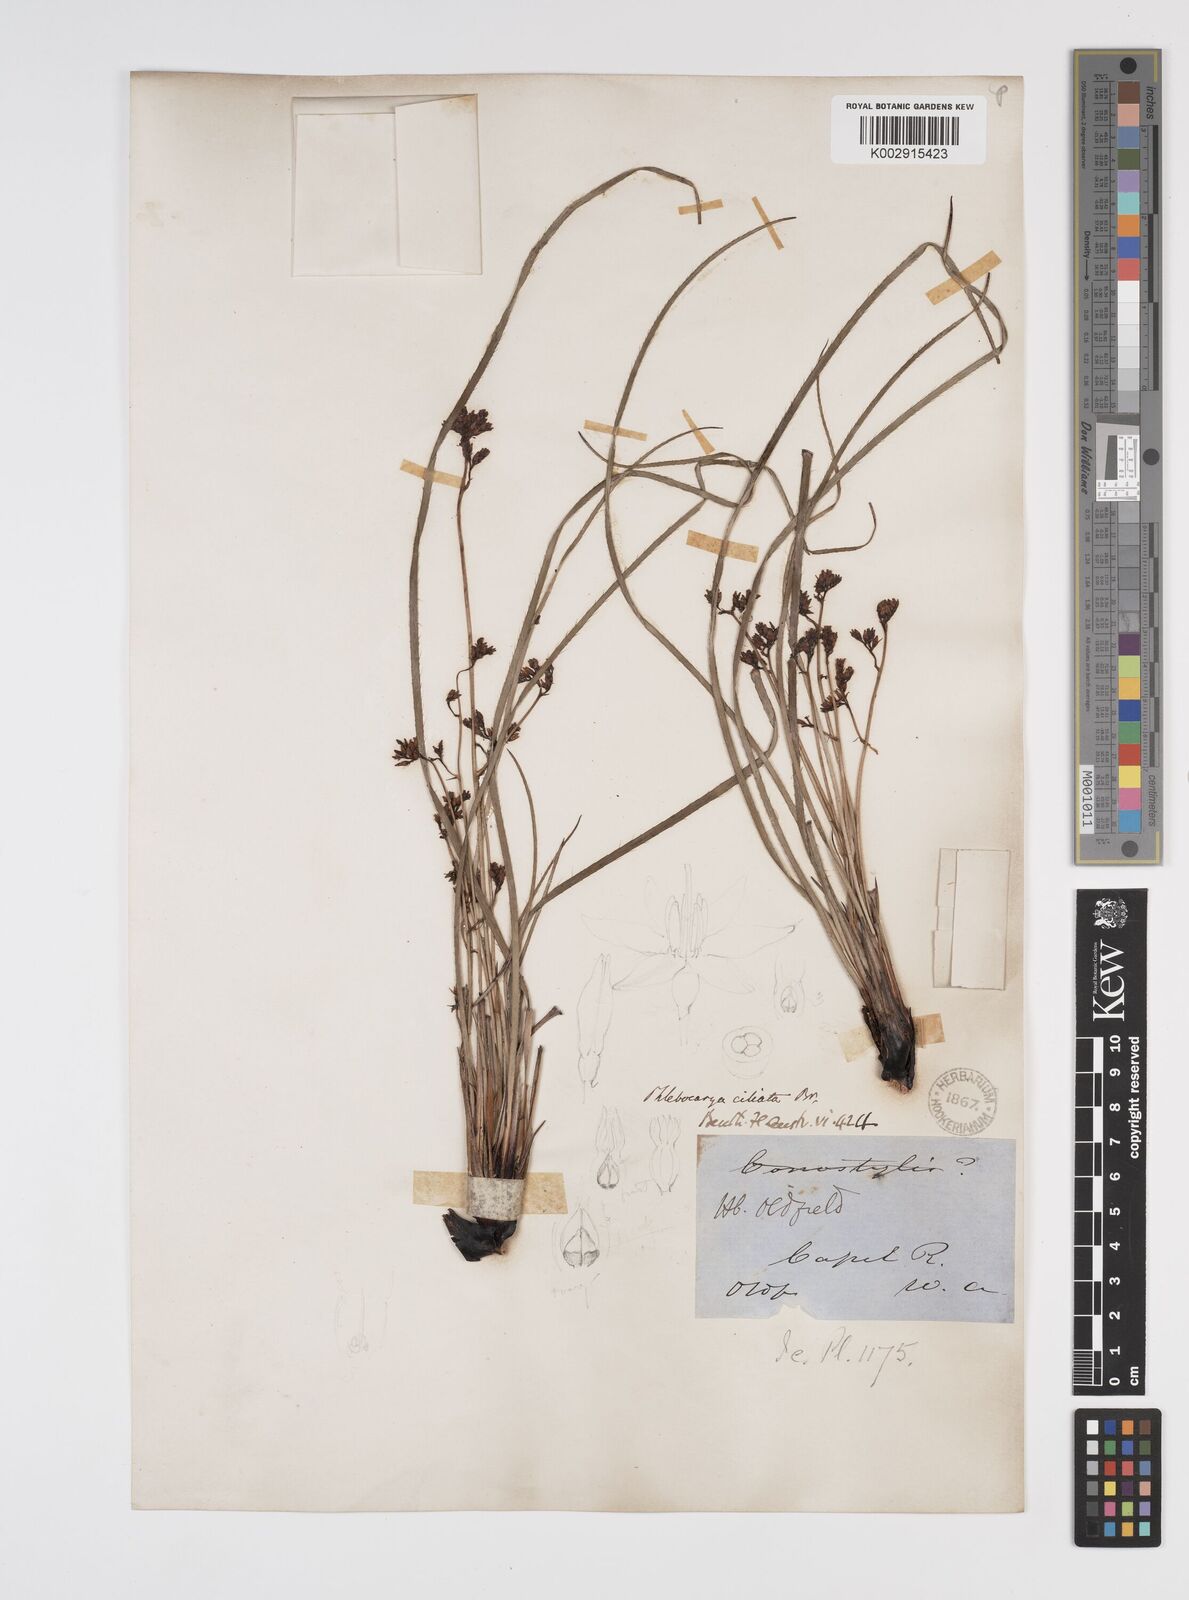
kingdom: Plantae
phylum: Tracheophyta
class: Liliopsida
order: Commelinales
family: Haemodoraceae
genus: Phlebocarya
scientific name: Phlebocarya ciliata
